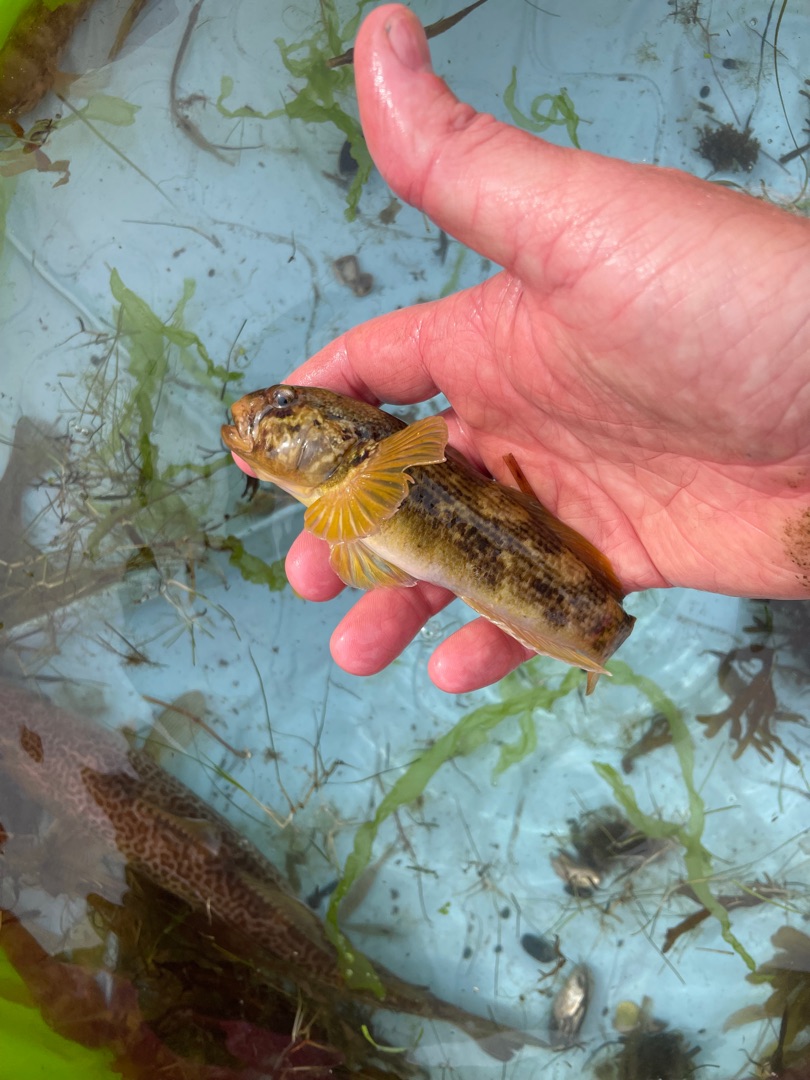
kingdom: Animalia
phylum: Chordata
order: Perciformes
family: Gobiidae
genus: Neogobius
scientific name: Neogobius melanostomus
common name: Sortmundet kutling
